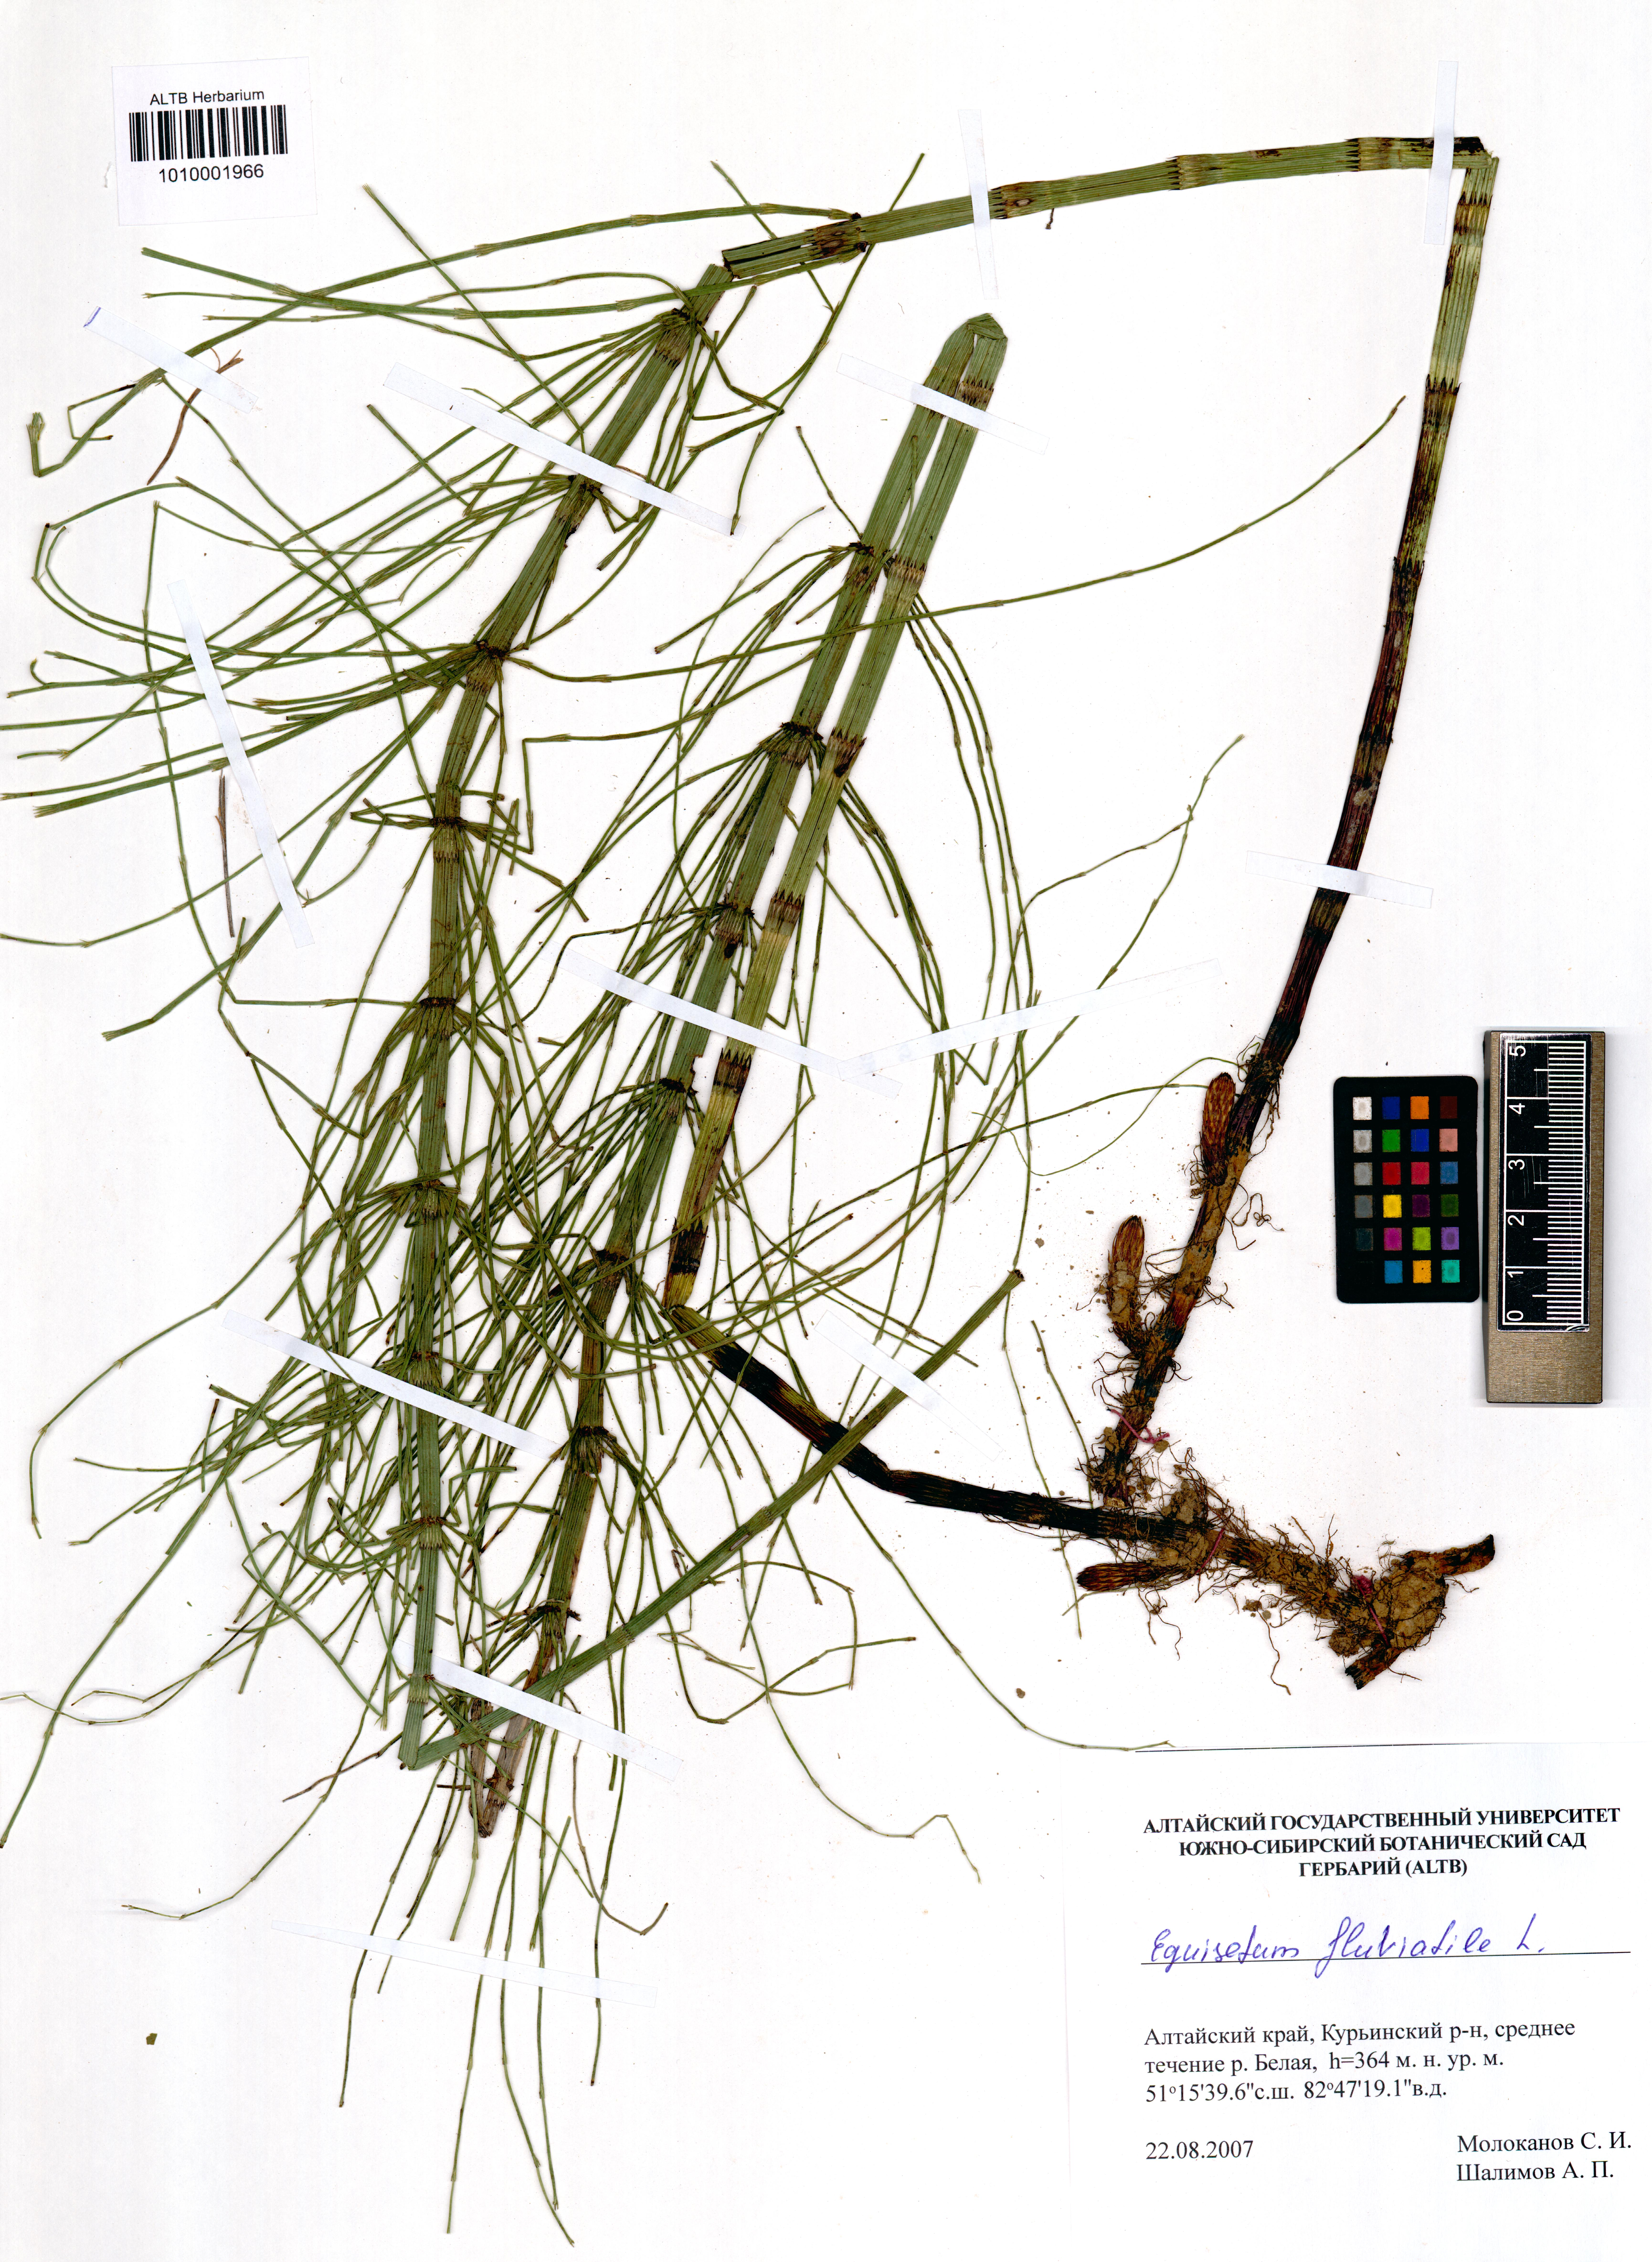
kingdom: Plantae
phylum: Tracheophyta
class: Polypodiopsida
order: Equisetales
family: Equisetaceae
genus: Equisetum
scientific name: Equisetum fluviatile
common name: Water horsetail
